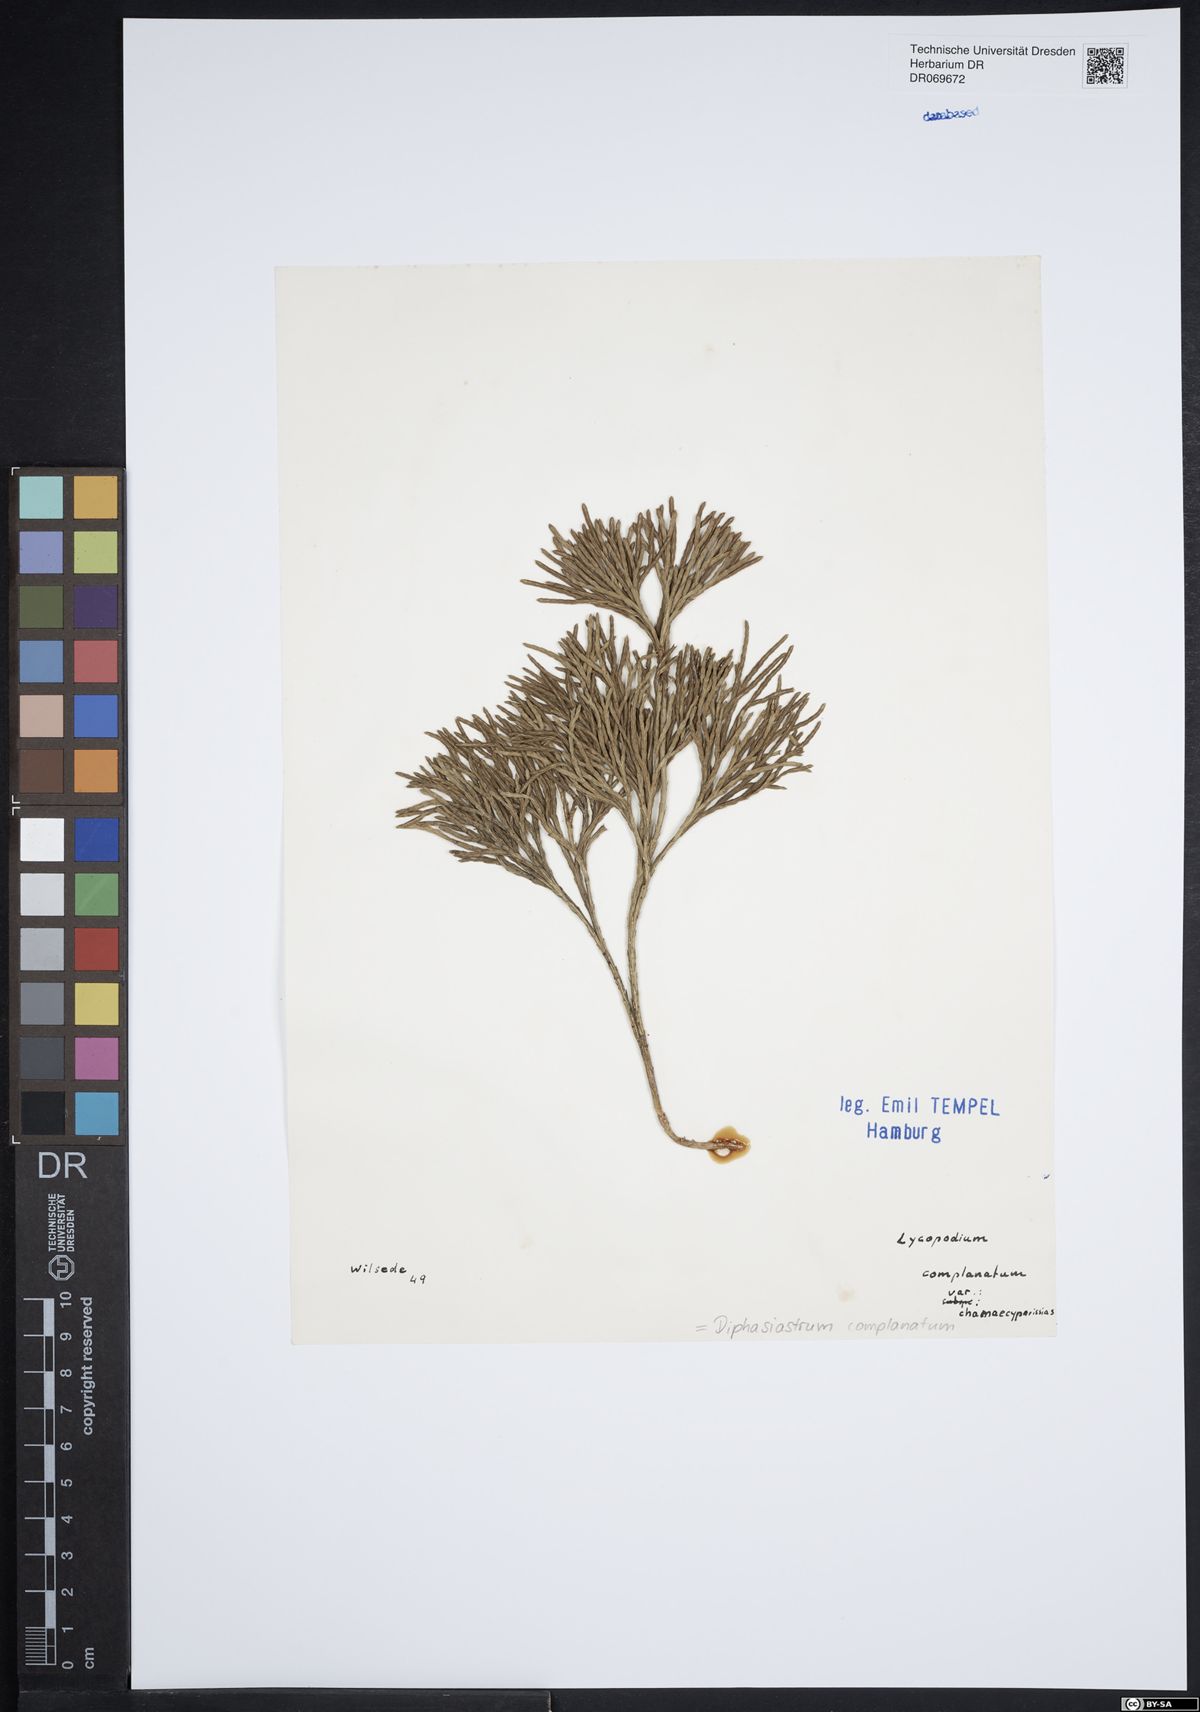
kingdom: Plantae
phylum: Tracheophyta
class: Lycopodiopsida
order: Lycopodiales
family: Lycopodiaceae
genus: Diphasiastrum
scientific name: Diphasiastrum complanatum
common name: Northern running-pine
